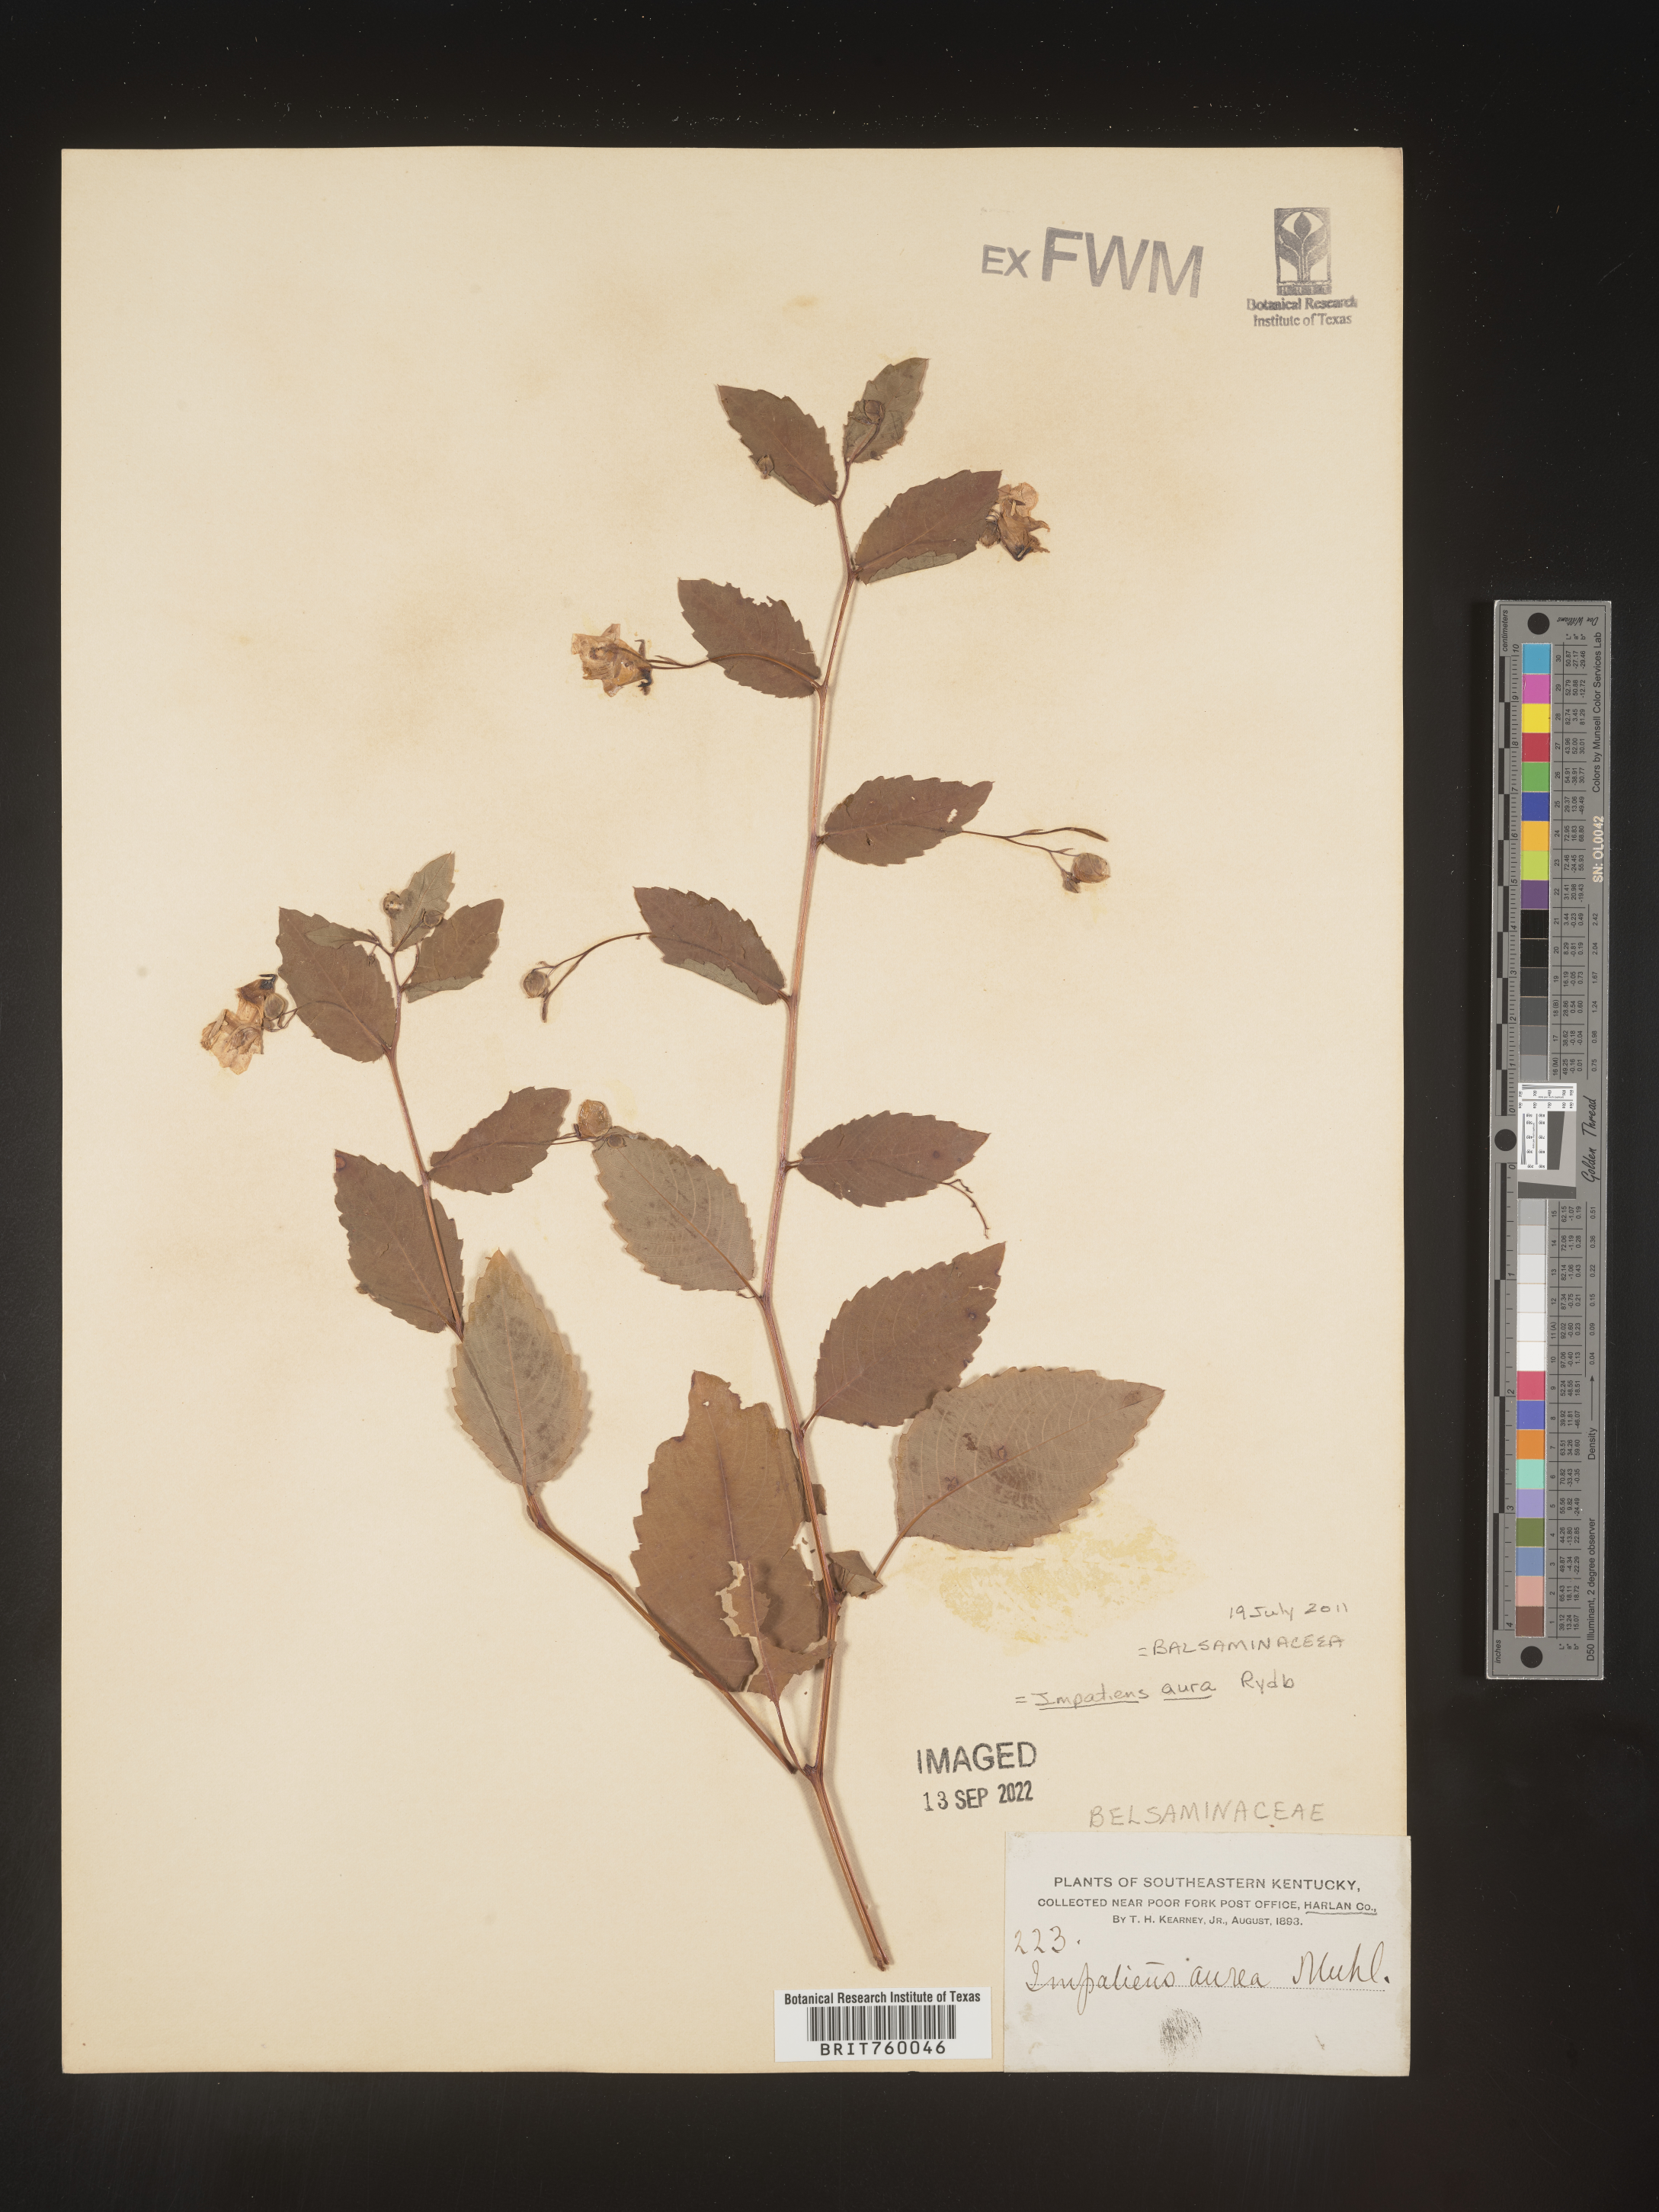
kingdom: Plantae
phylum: Tracheophyta
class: Magnoliopsida
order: Ericales
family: Balsaminaceae
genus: Impatiens
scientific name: Impatiens capensis
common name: Orange balsam
